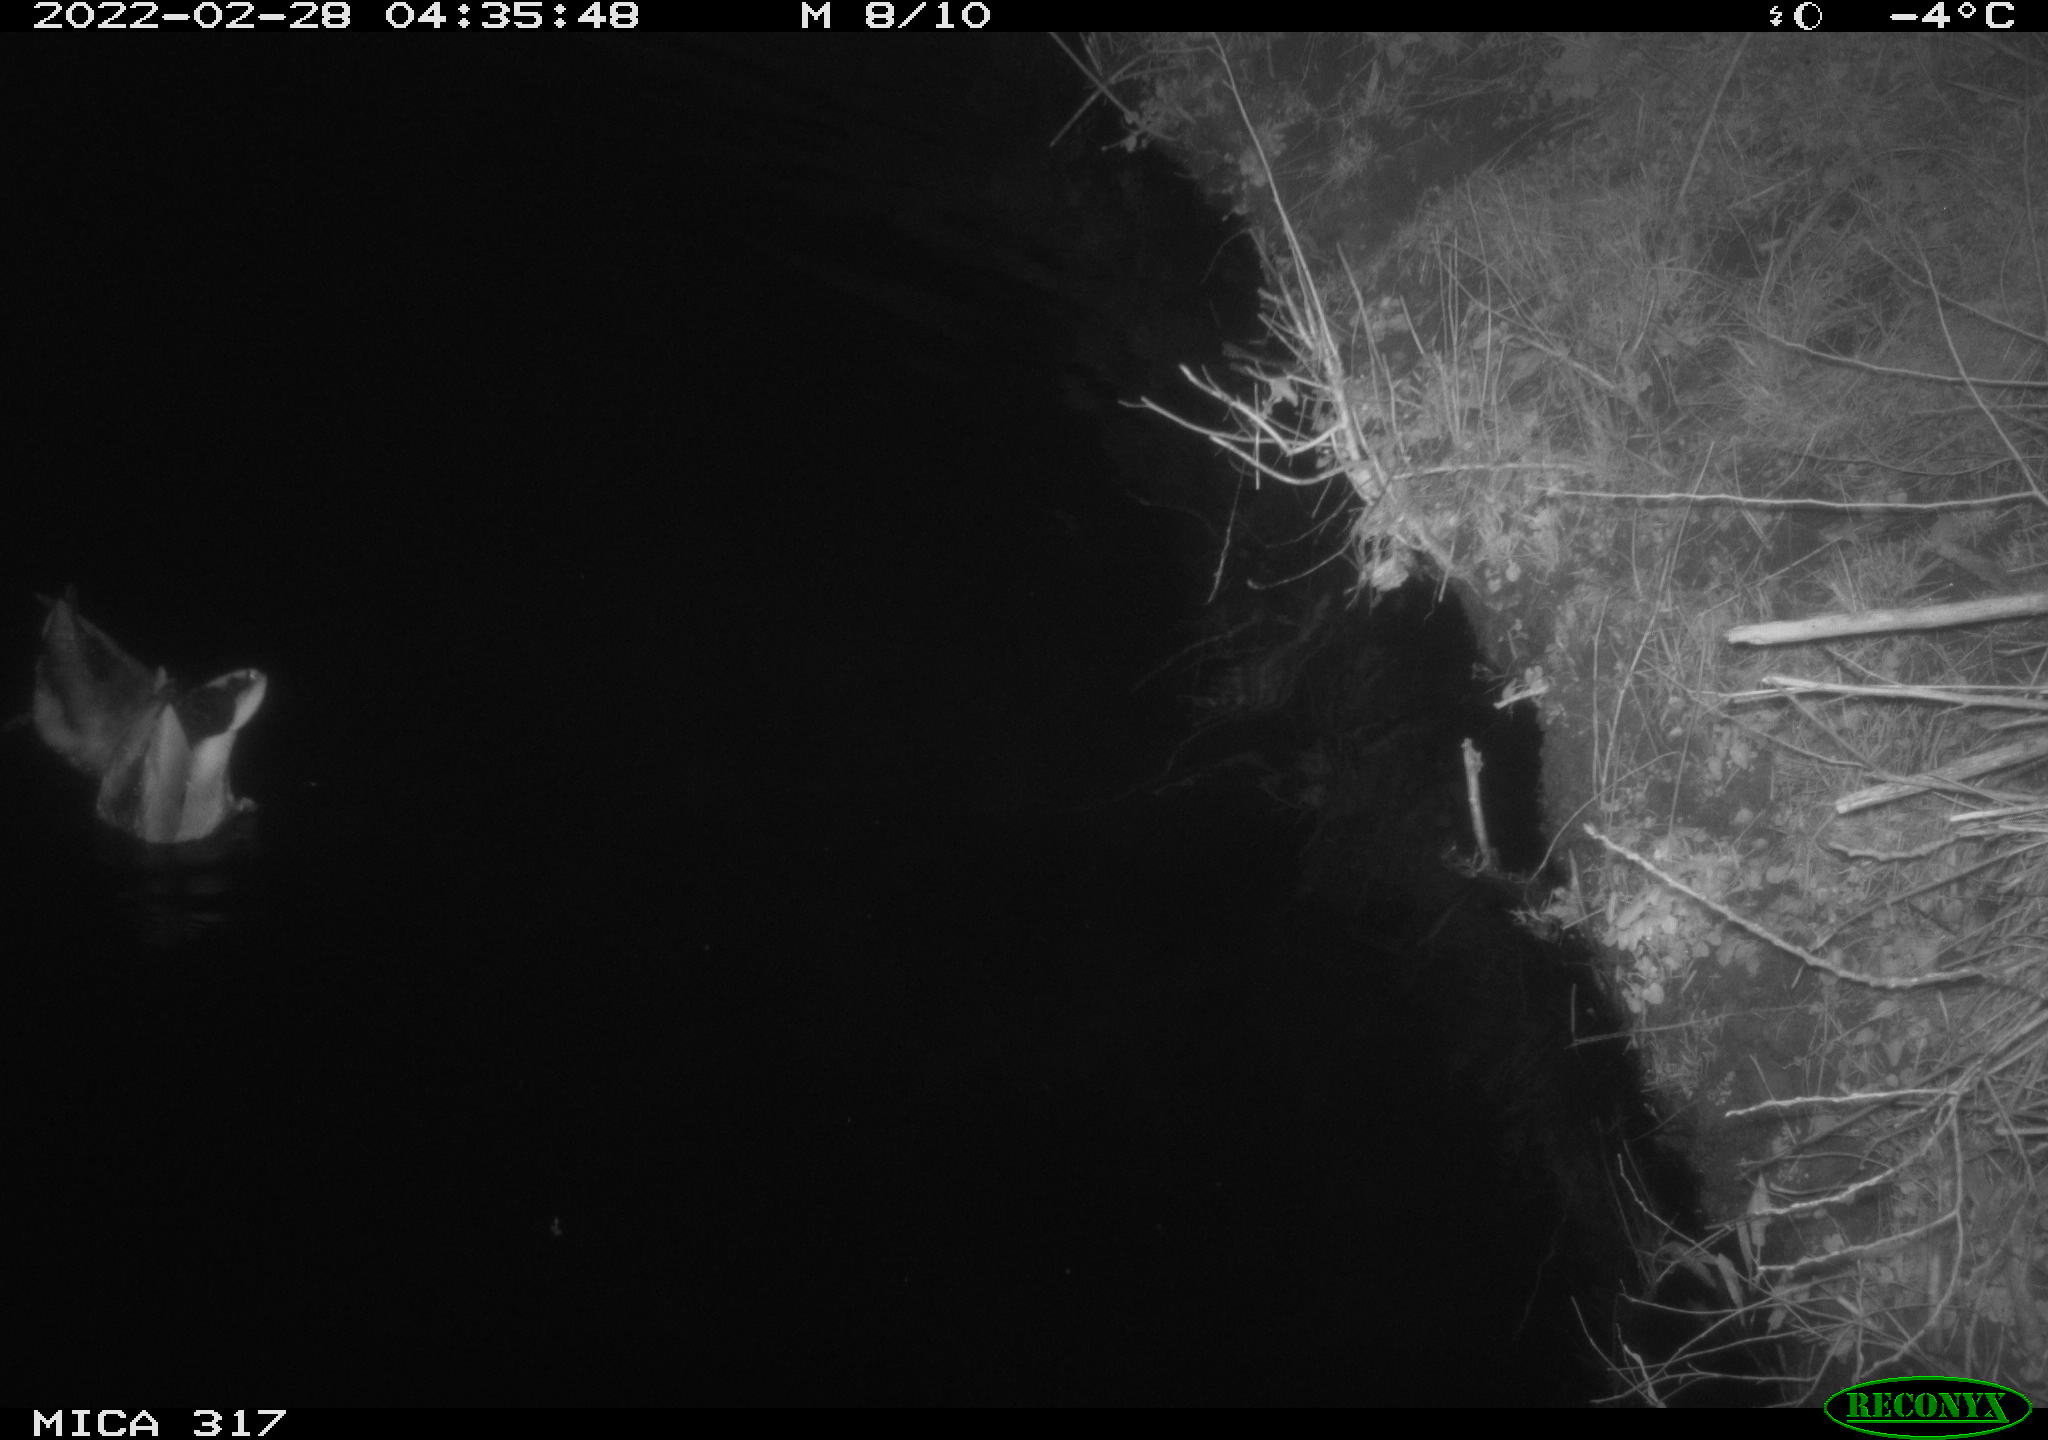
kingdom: Animalia
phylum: Chordata
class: Aves
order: Anseriformes
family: Anatidae
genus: Anas
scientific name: Anas platyrhynchos
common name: Mallard
